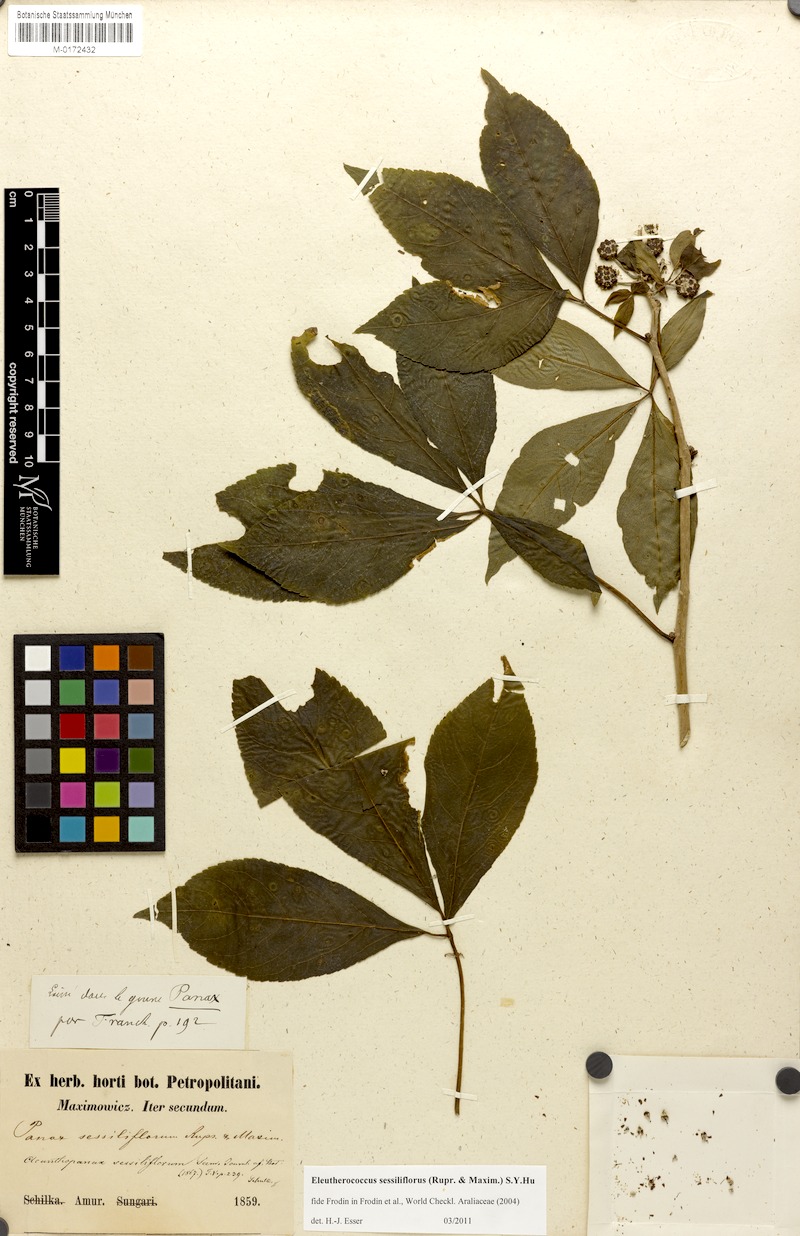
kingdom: Plantae
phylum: Tracheophyta
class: Magnoliopsida
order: Apiales
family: Araliaceae
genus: Eleutherococcus
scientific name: Eleutherococcus sessiliflorus
